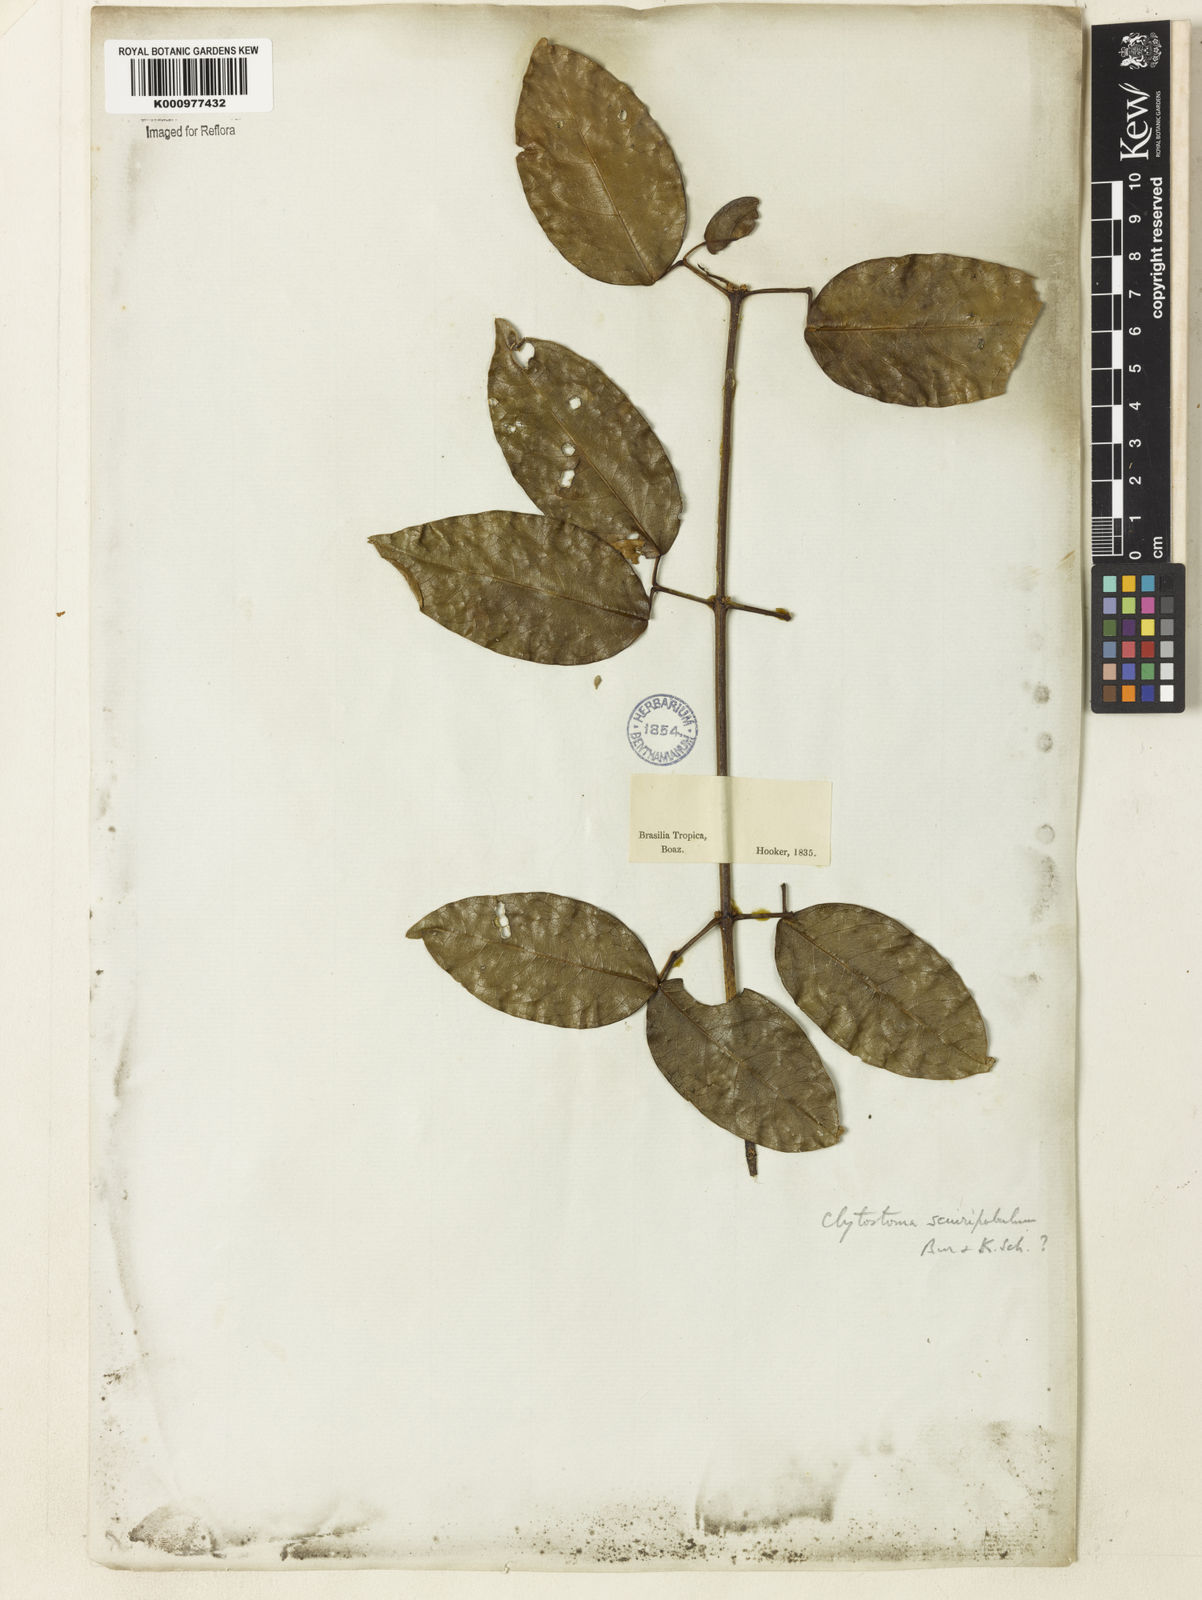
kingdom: Plantae
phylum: Tracheophyta
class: Magnoliopsida
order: Lamiales
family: Bignoniaceae
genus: Bignonia
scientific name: Bignonia
